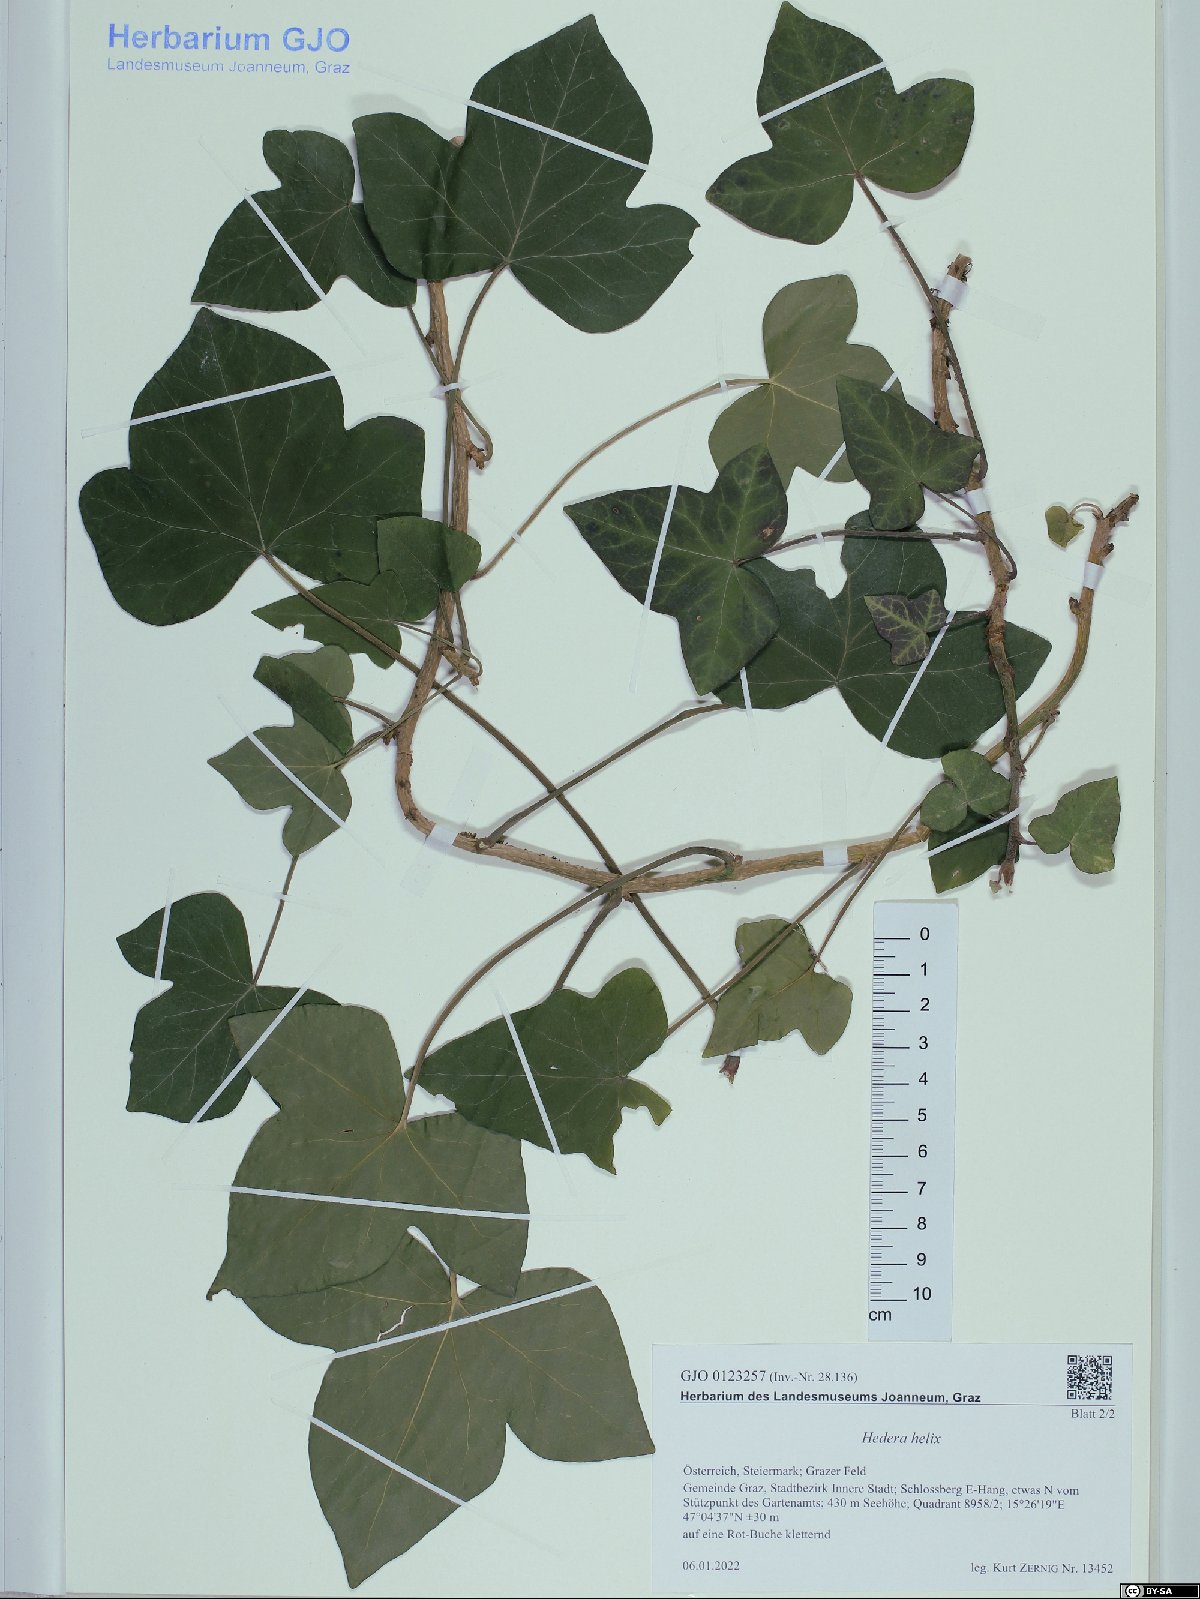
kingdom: Plantae
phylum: Tracheophyta
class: Magnoliopsida
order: Apiales
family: Araliaceae
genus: Hedera
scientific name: Hedera helix
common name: Ivy
